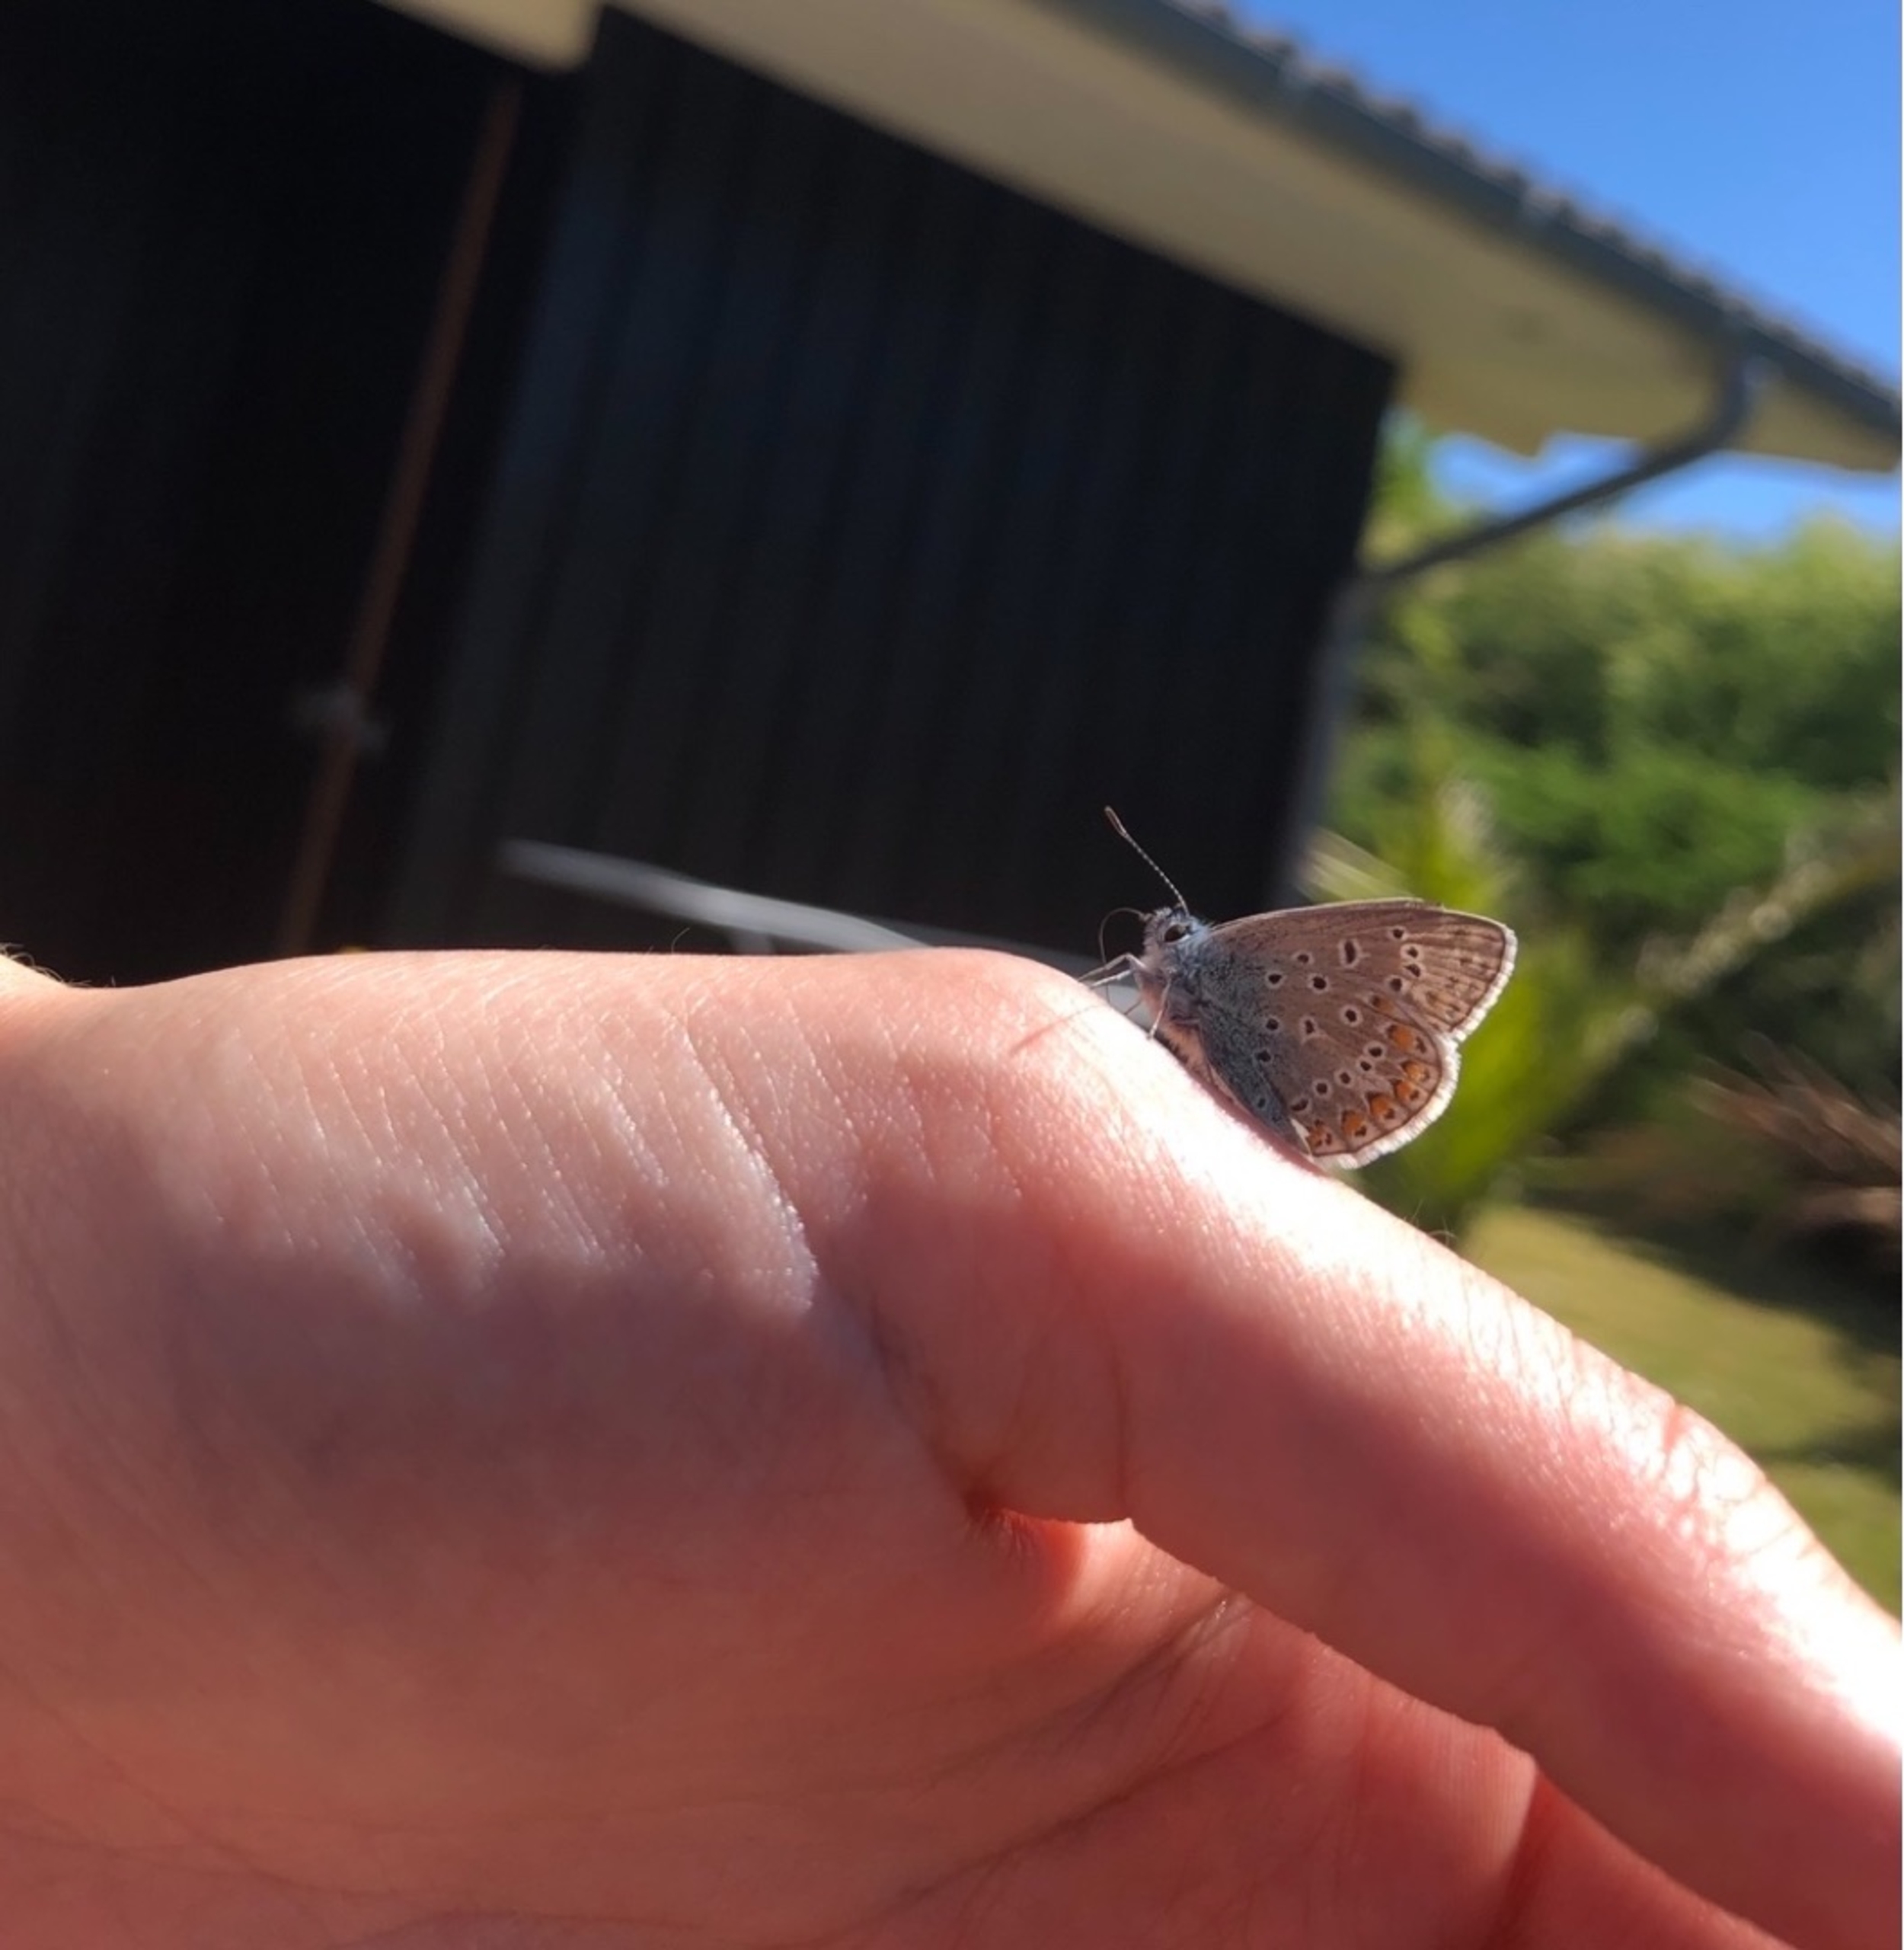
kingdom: Animalia
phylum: Arthropoda
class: Insecta
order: Lepidoptera
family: Lycaenidae
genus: Polyommatus
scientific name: Polyommatus icarus
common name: Almindelig blåfugl
